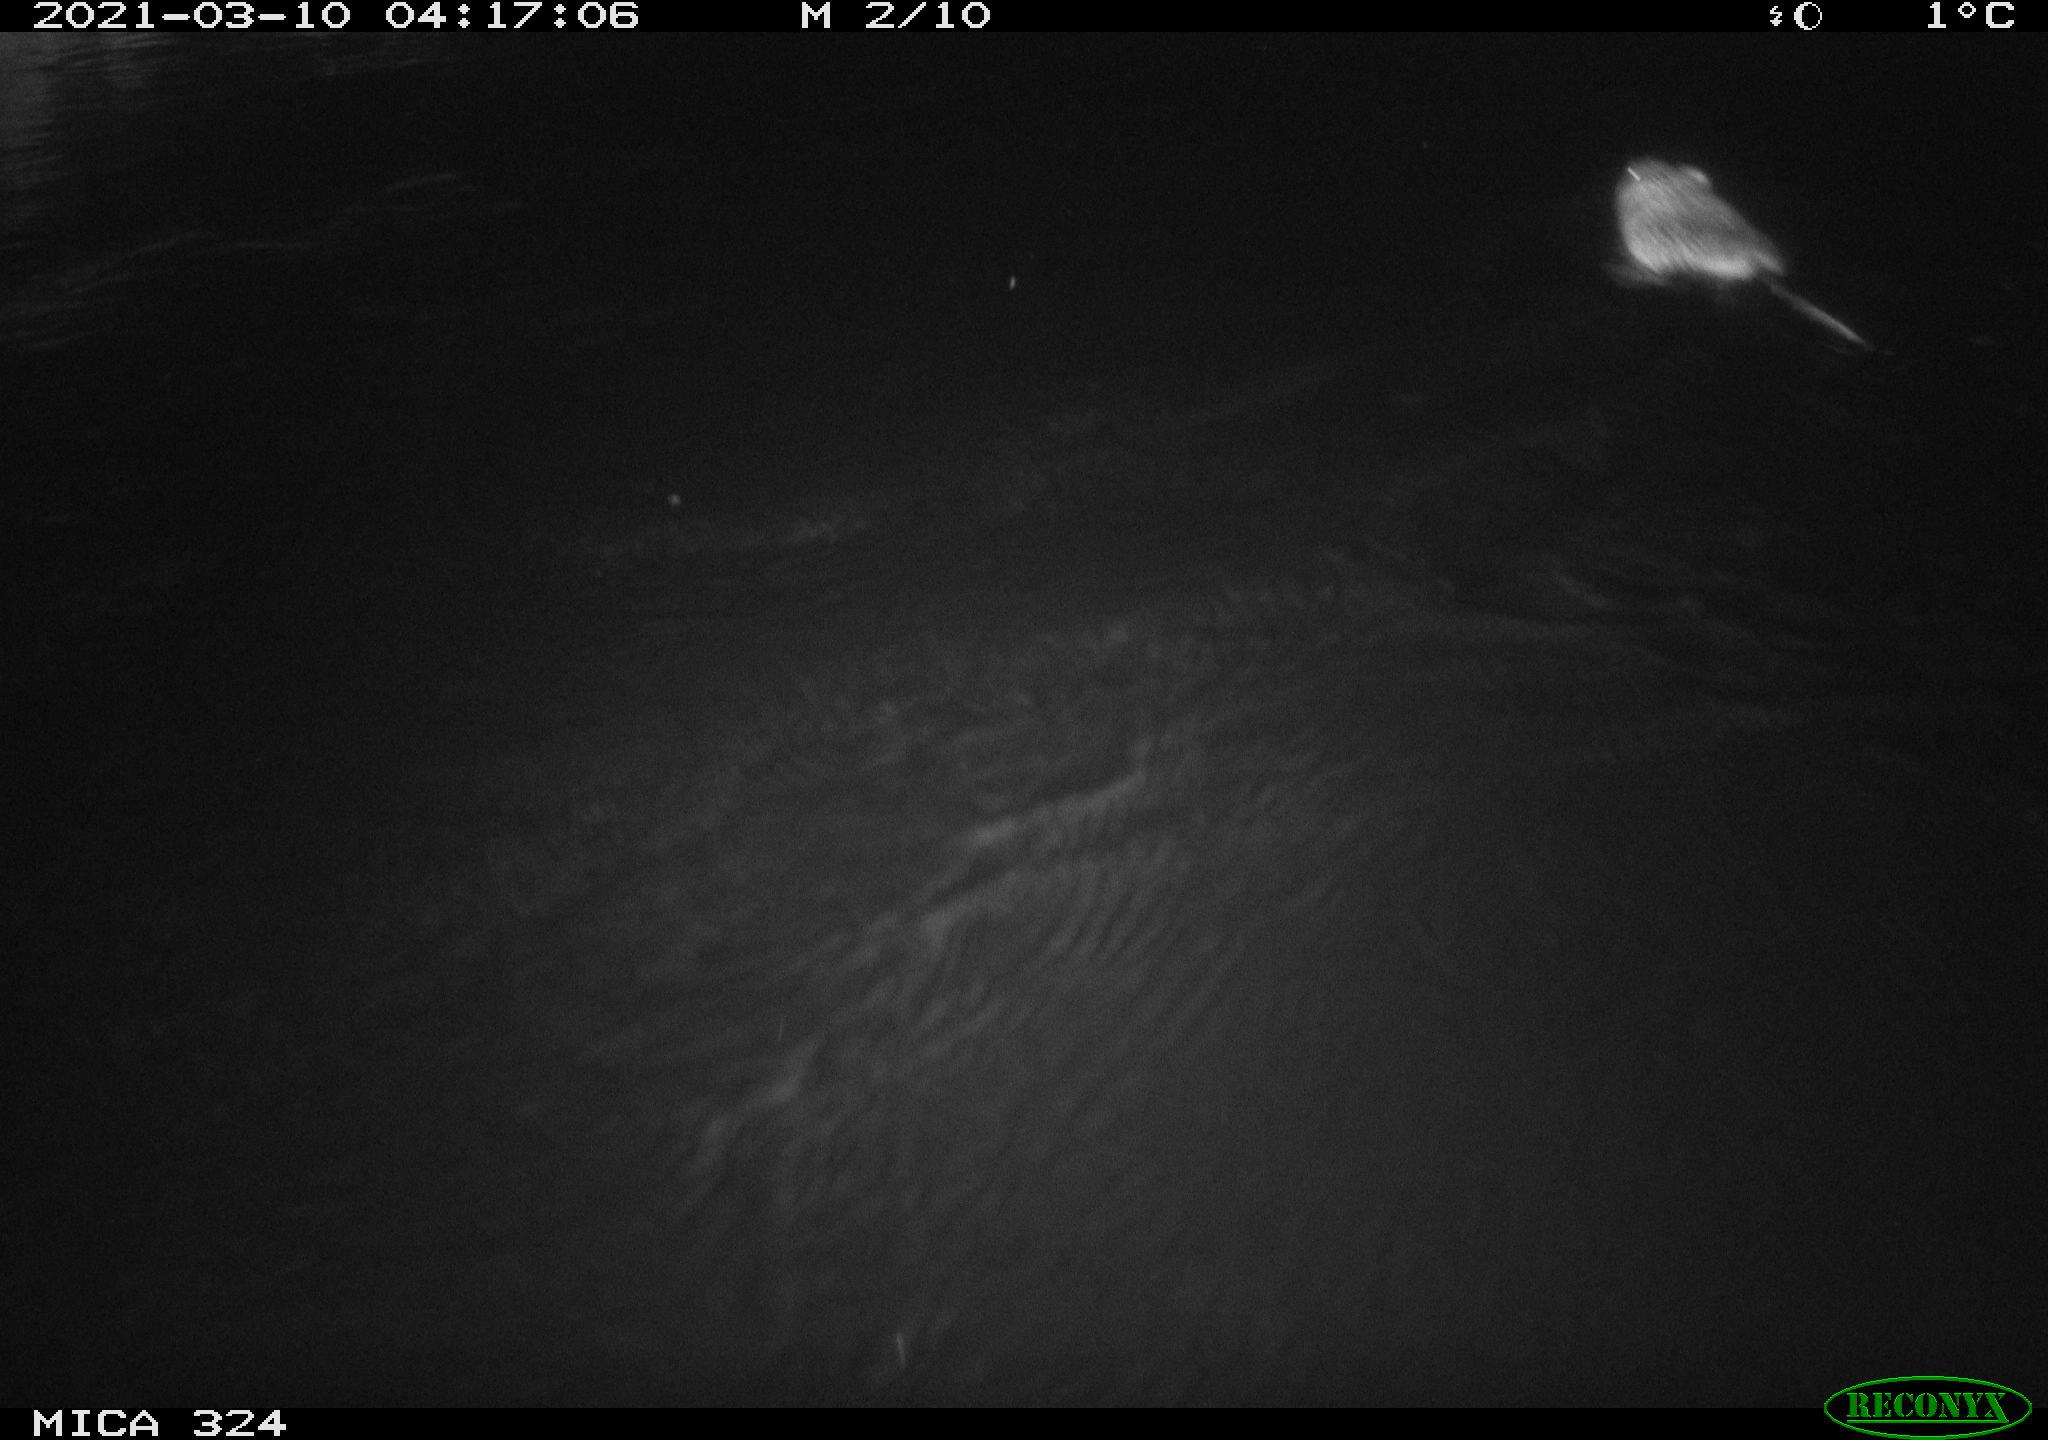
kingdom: Animalia
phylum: Chordata
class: Mammalia
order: Rodentia
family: Cricetidae
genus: Ondatra
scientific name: Ondatra zibethicus
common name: Muskrat
